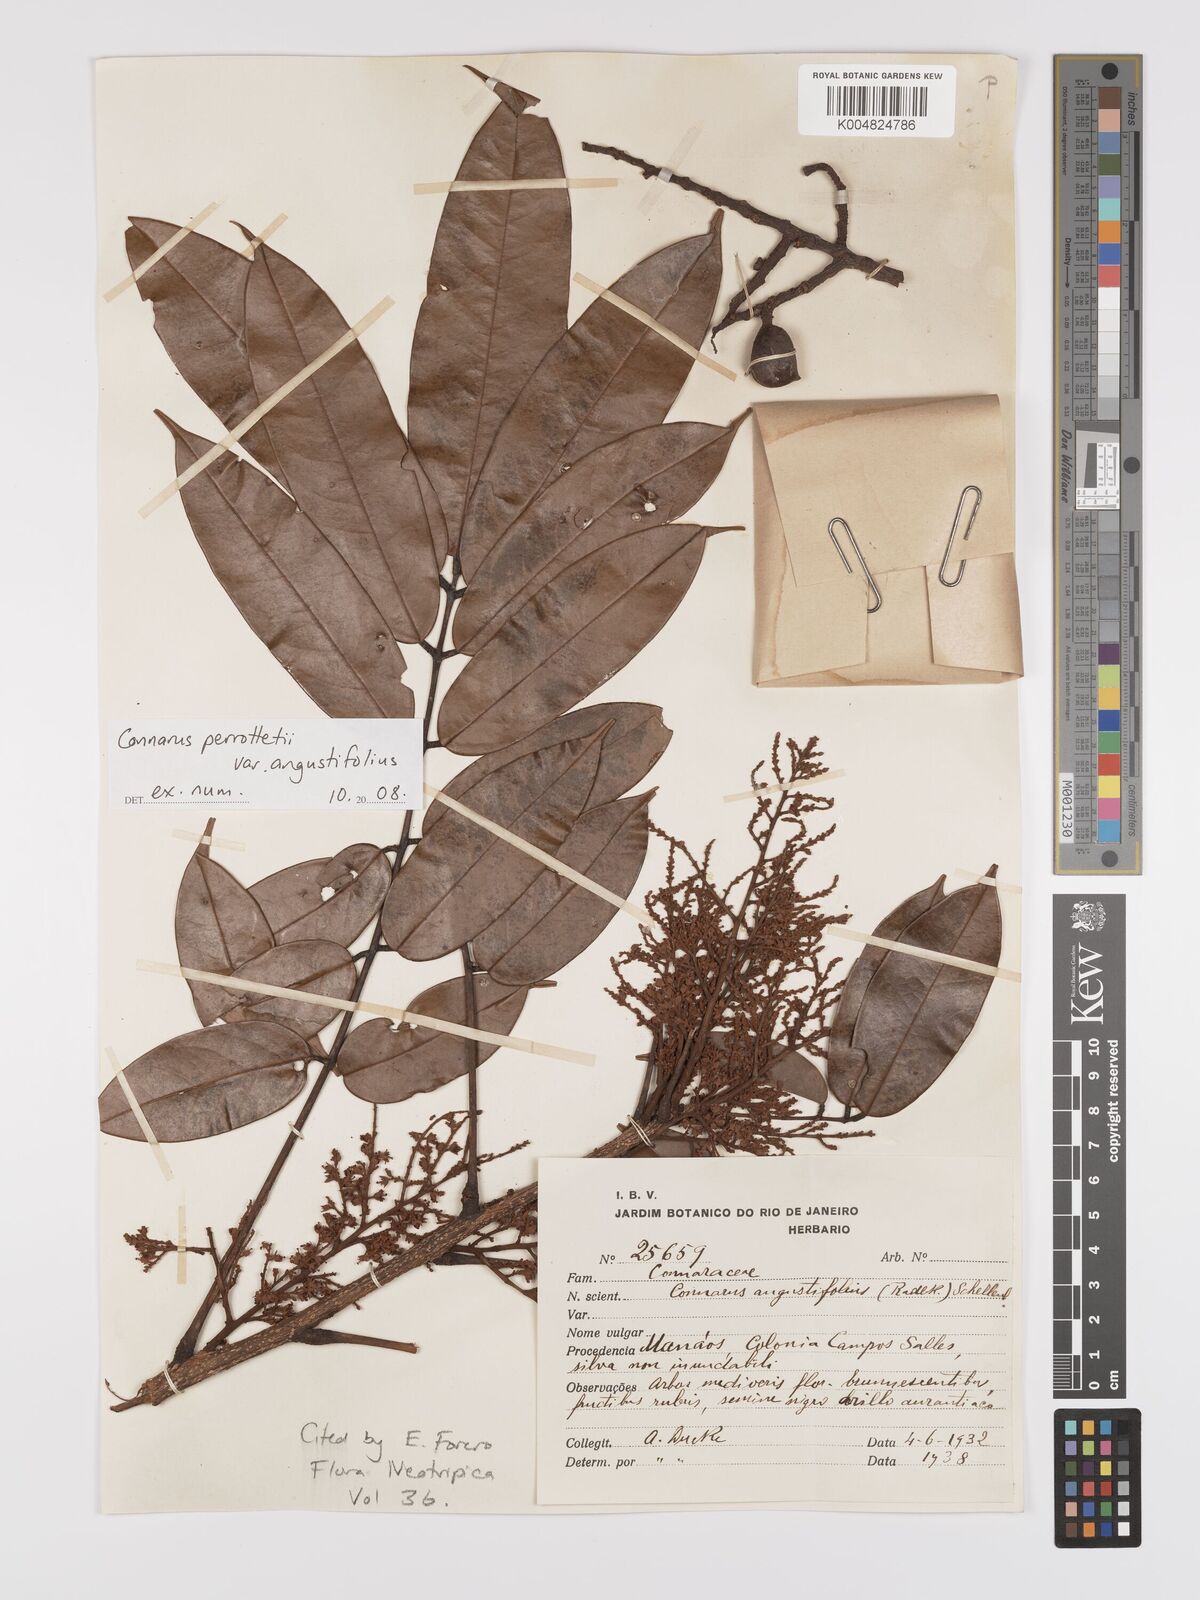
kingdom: Plantae
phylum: Tracheophyta
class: Magnoliopsida
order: Oxalidales
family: Connaraceae
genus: Connarus
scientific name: Connarus perrottetii
